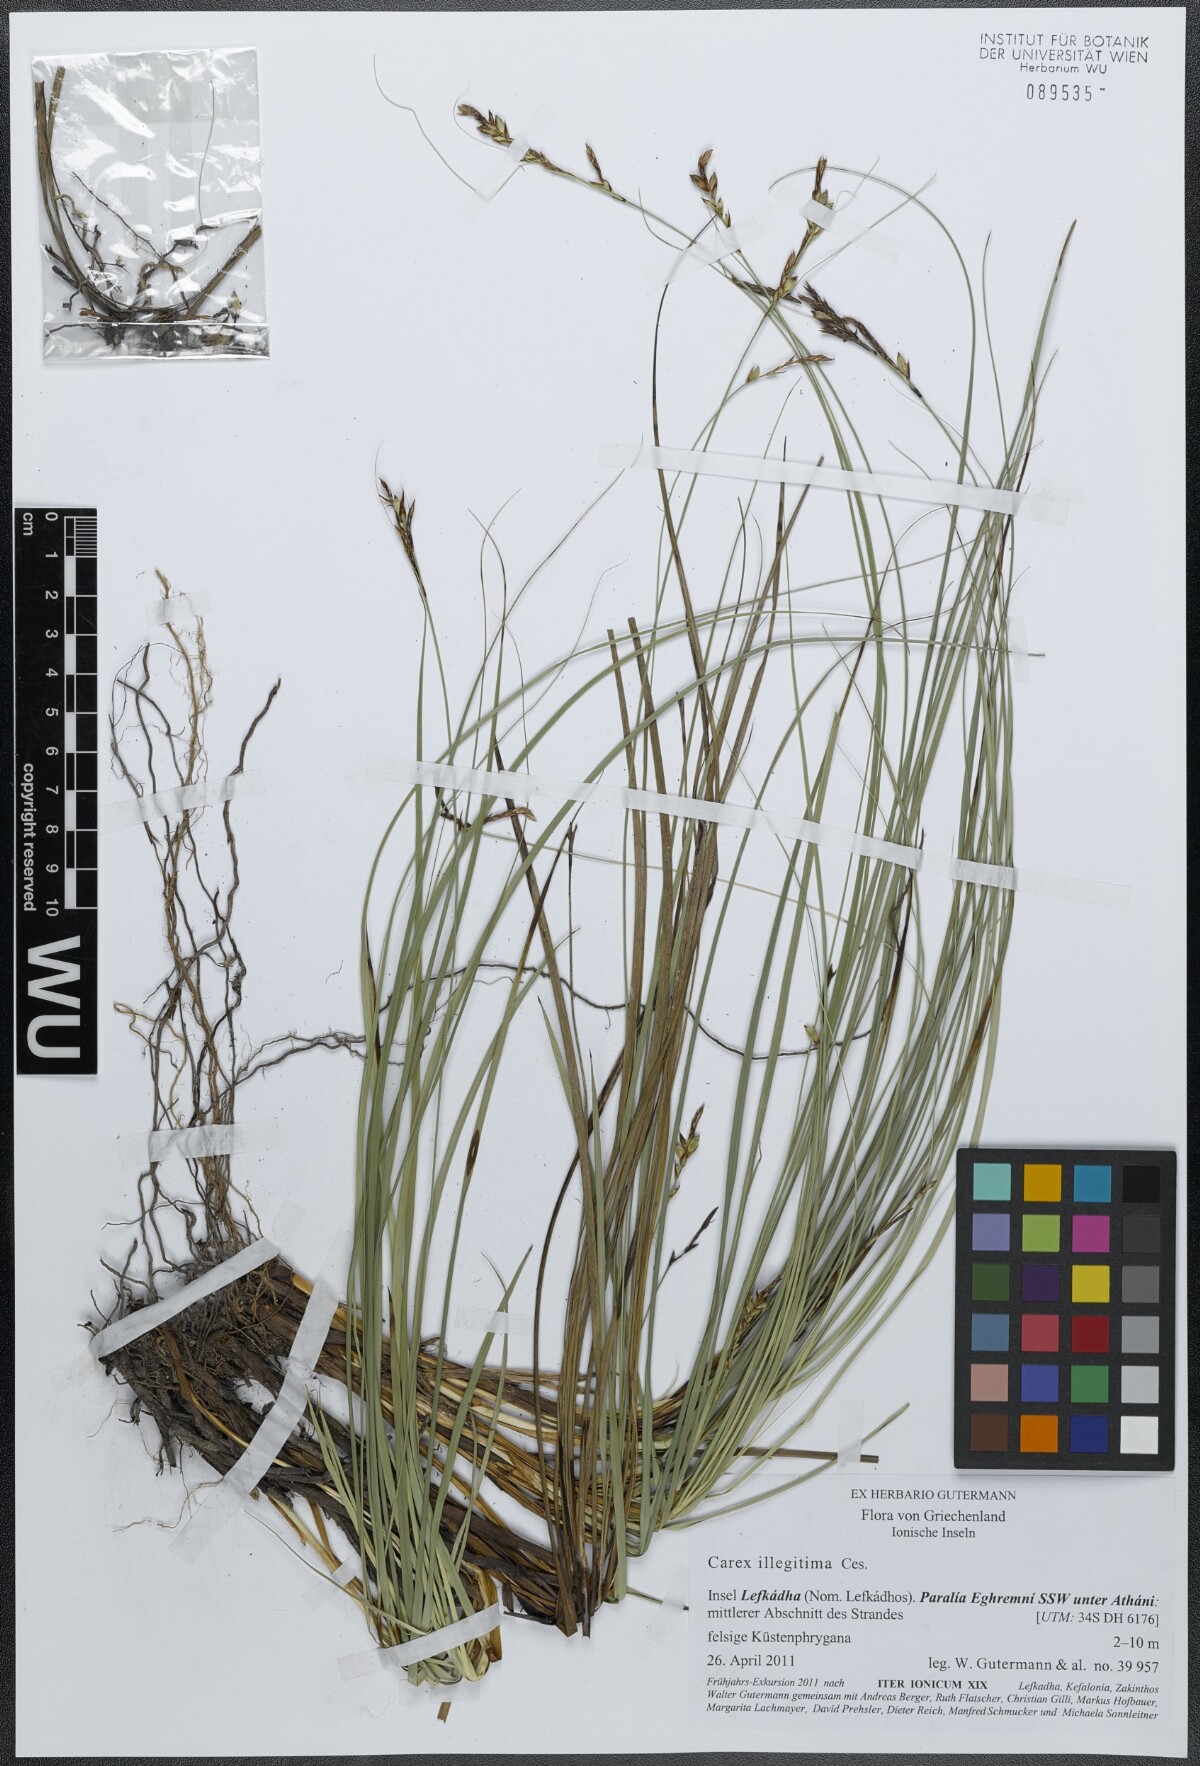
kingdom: Plantae
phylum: Tracheophyta
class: Liliopsida
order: Poales
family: Cyperaceae
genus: Carex
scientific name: Carex illegitima
